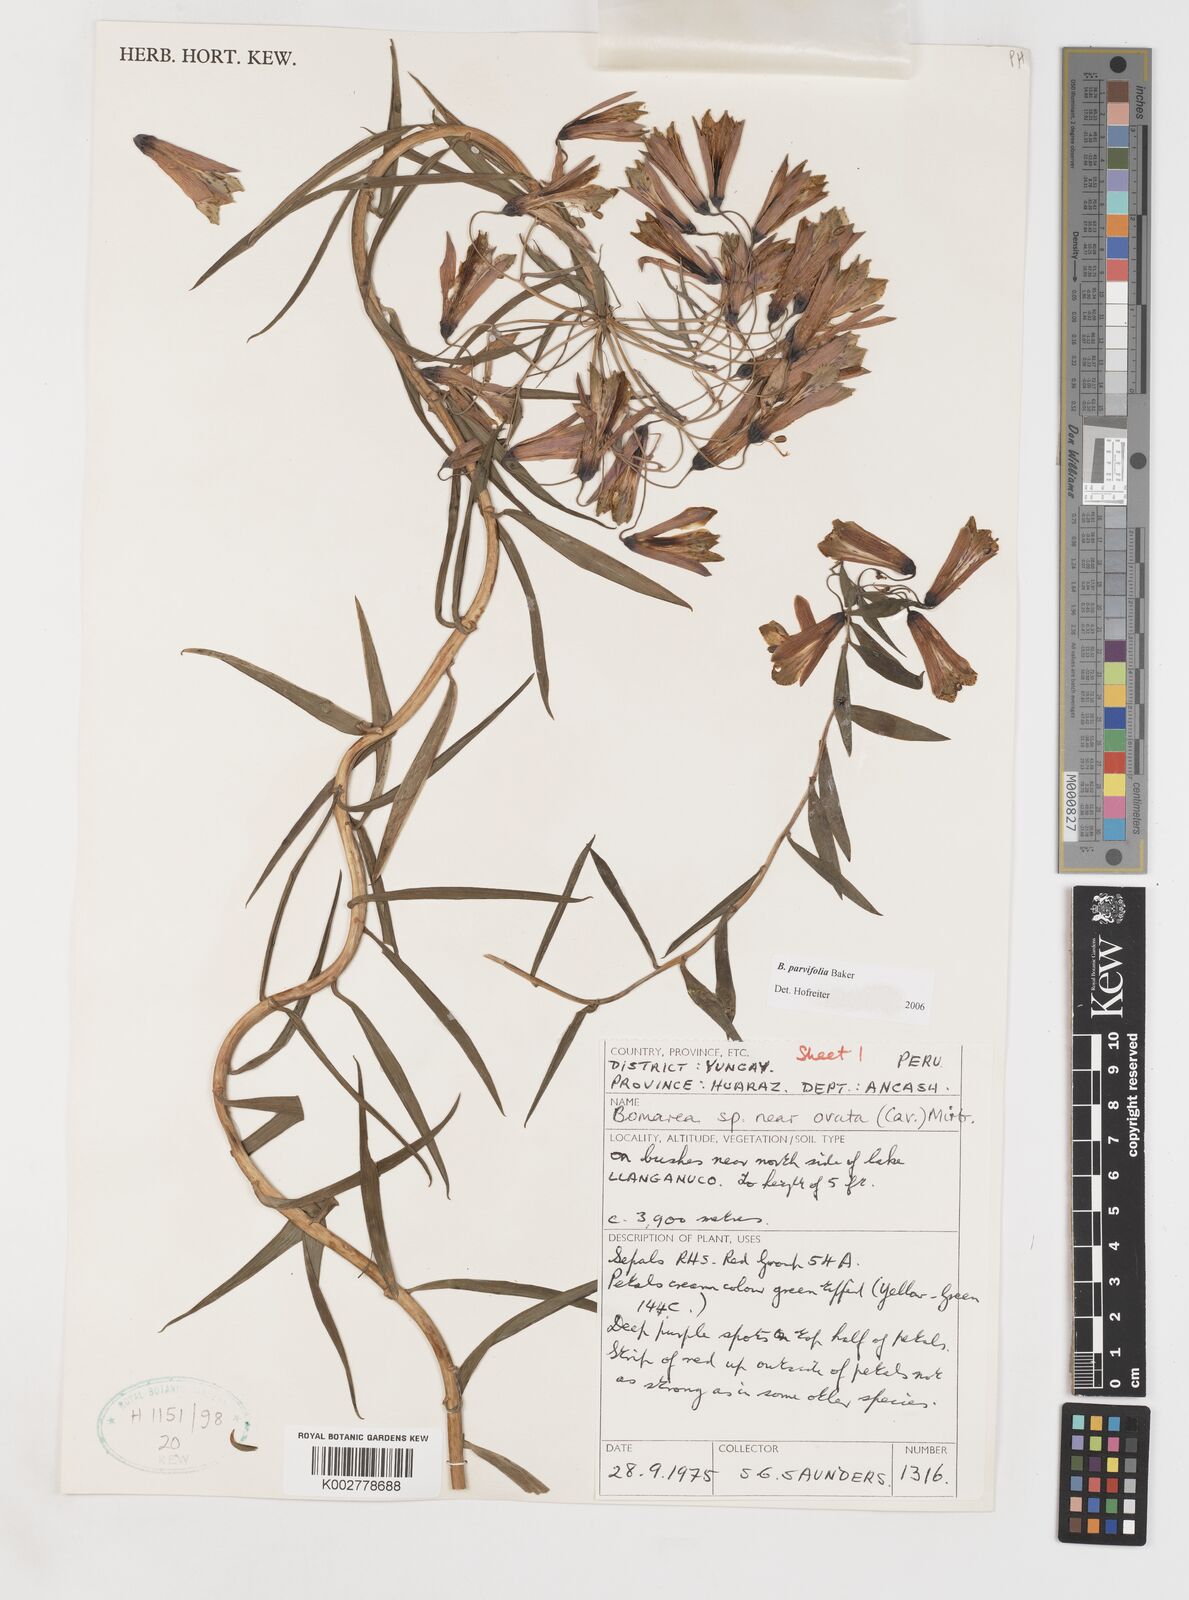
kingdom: Plantae
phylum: Tracheophyta
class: Liliopsida
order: Liliales
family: Alstroemeriaceae
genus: Bomarea
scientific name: Bomarea parvifolia
